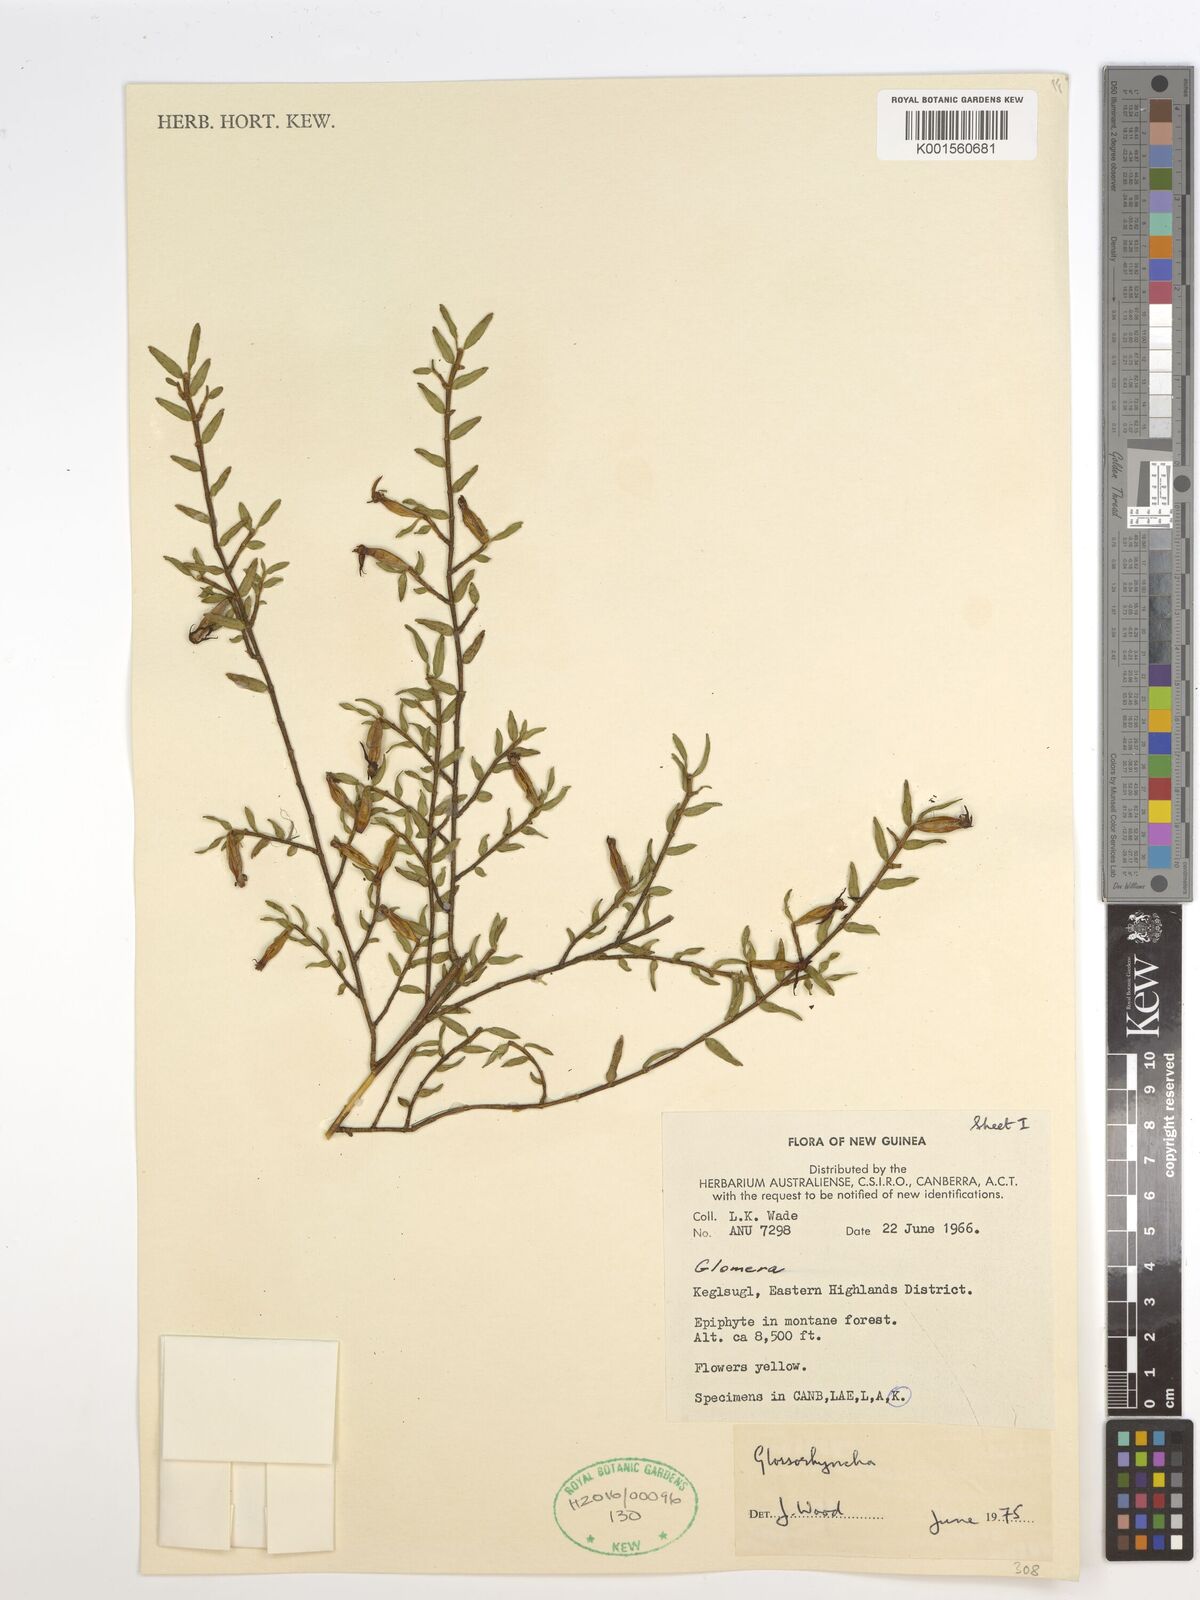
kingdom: Plantae
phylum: Tracheophyta
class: Liliopsida
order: Asparagales
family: Orchidaceae
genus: Glomera
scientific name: Glomera
